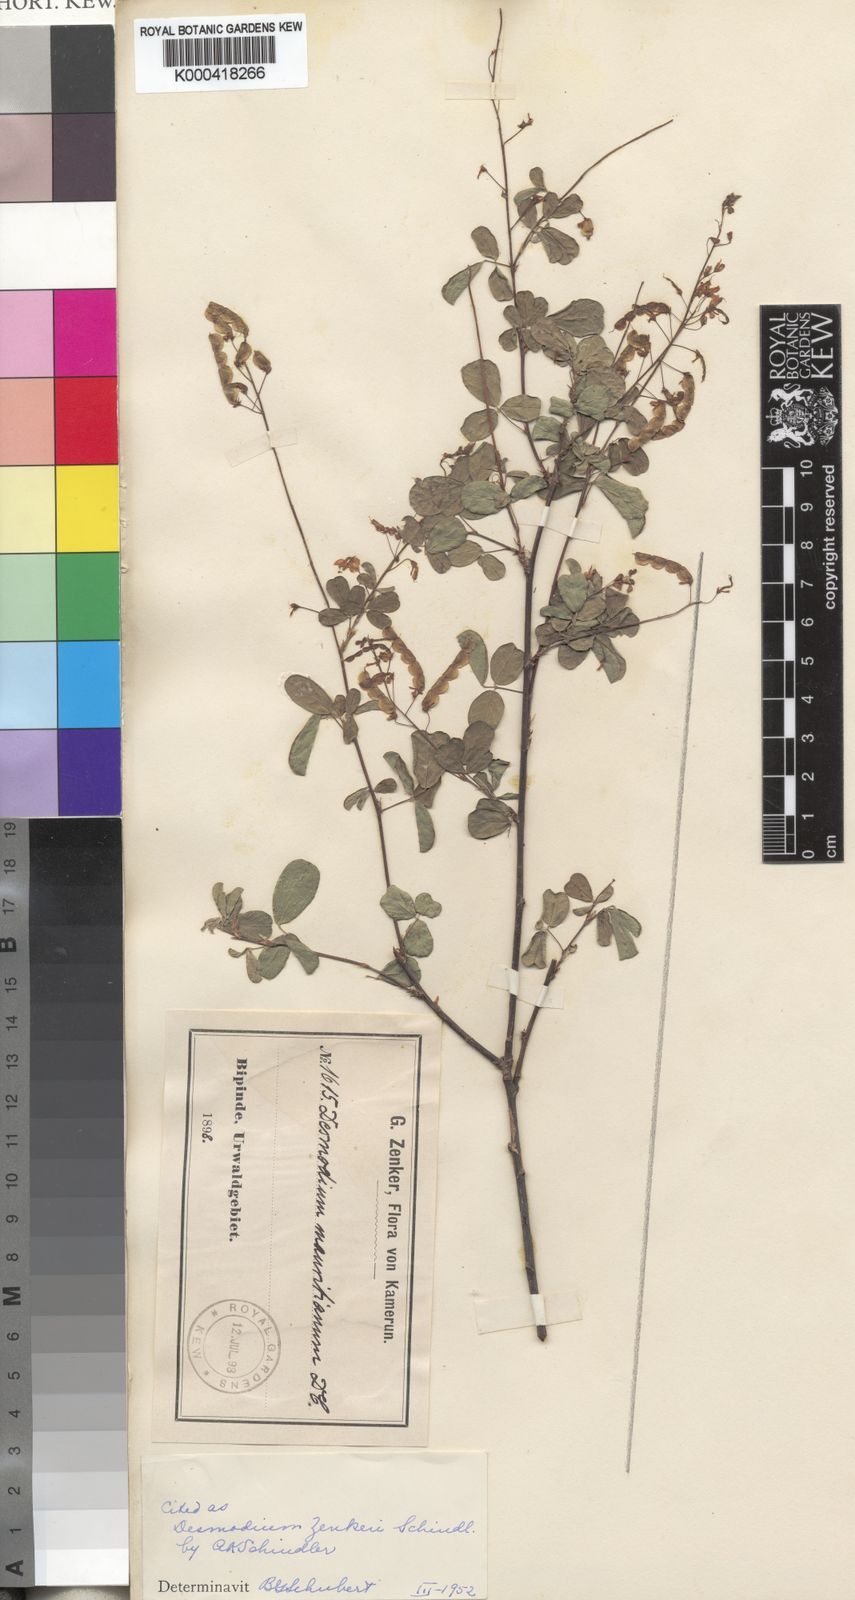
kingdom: Plantae
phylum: Tracheophyta
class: Magnoliopsida
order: Fabales
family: Fabaceae
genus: Desmodium
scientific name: Desmodium
